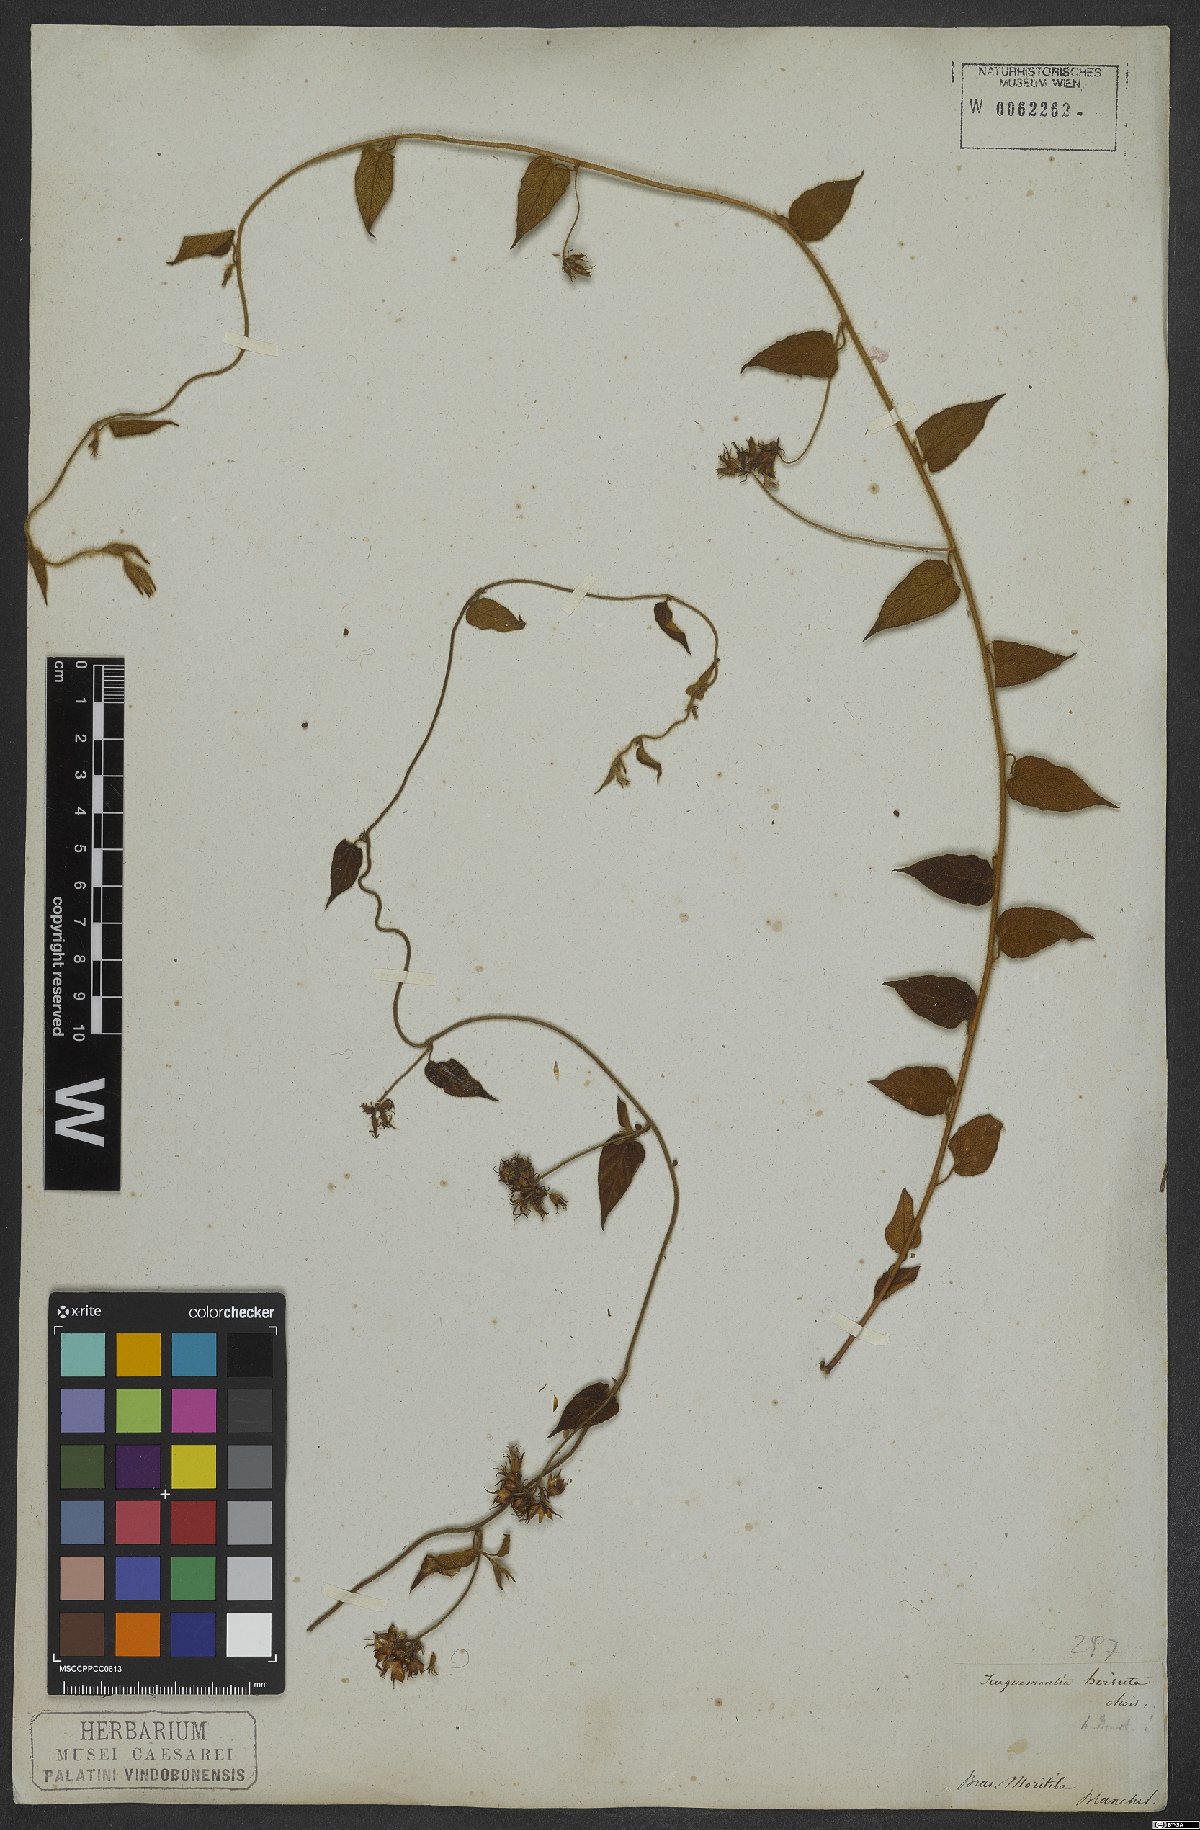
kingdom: Plantae
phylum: Tracheophyta
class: Magnoliopsida
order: Solanales
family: Convolvulaceae
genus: Jacquemontia
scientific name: Jacquemontia sphaerostigma
